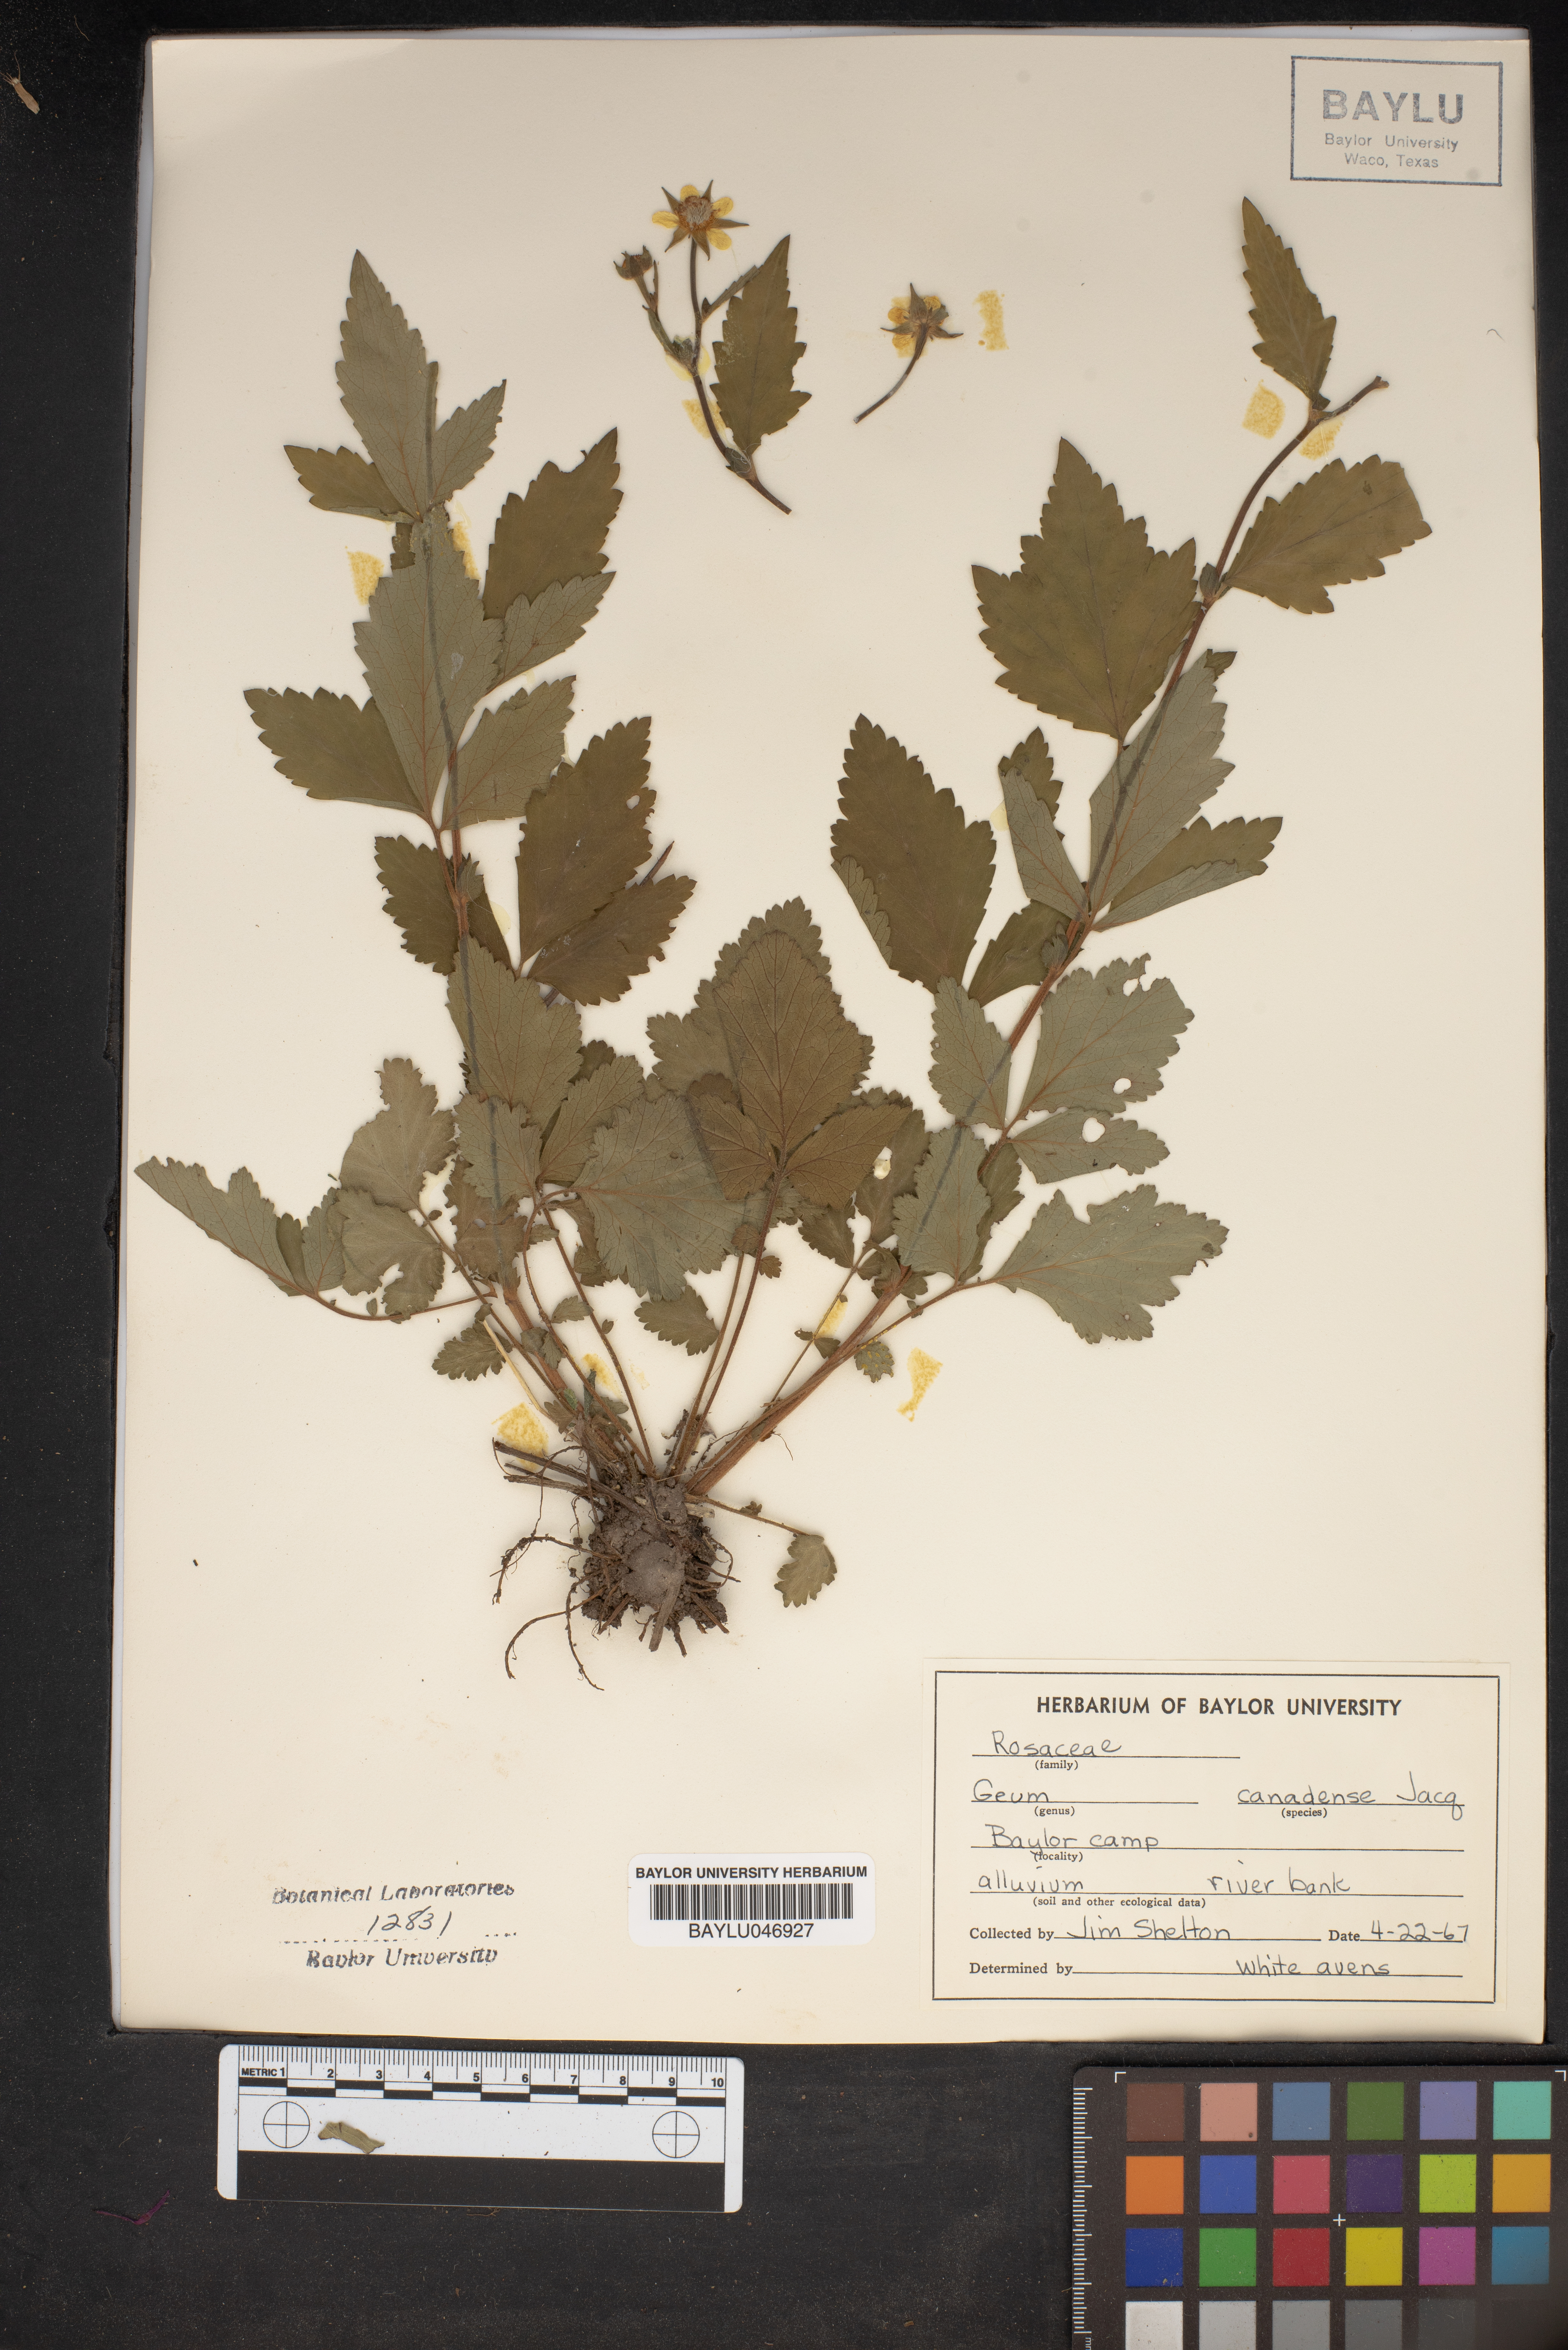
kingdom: Plantae
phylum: Tracheophyta
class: Magnoliopsida
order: Rosales
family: Rosaceae
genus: Geum
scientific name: Geum canadense
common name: White avens
